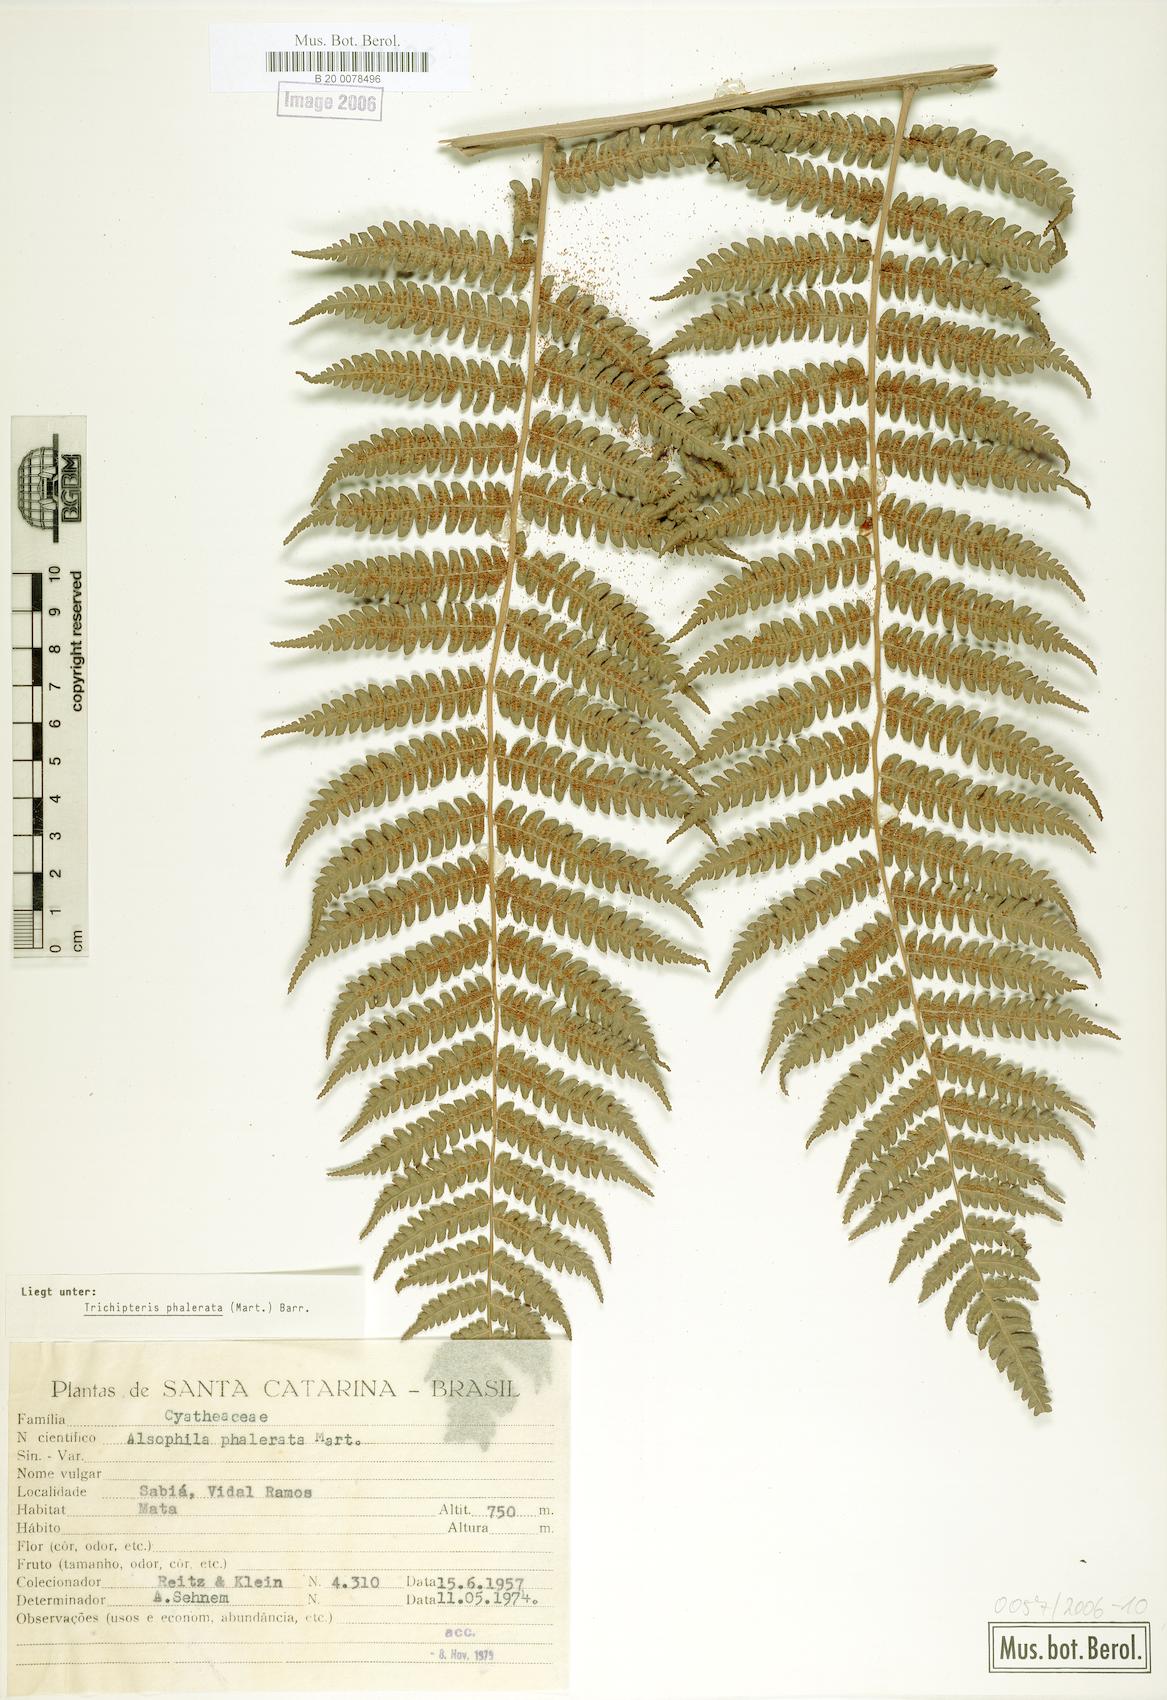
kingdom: Plantae
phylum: Tracheophyta
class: Polypodiopsida
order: Cyatheales
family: Cyatheaceae
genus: Cyathea
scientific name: Cyathea phalerata
